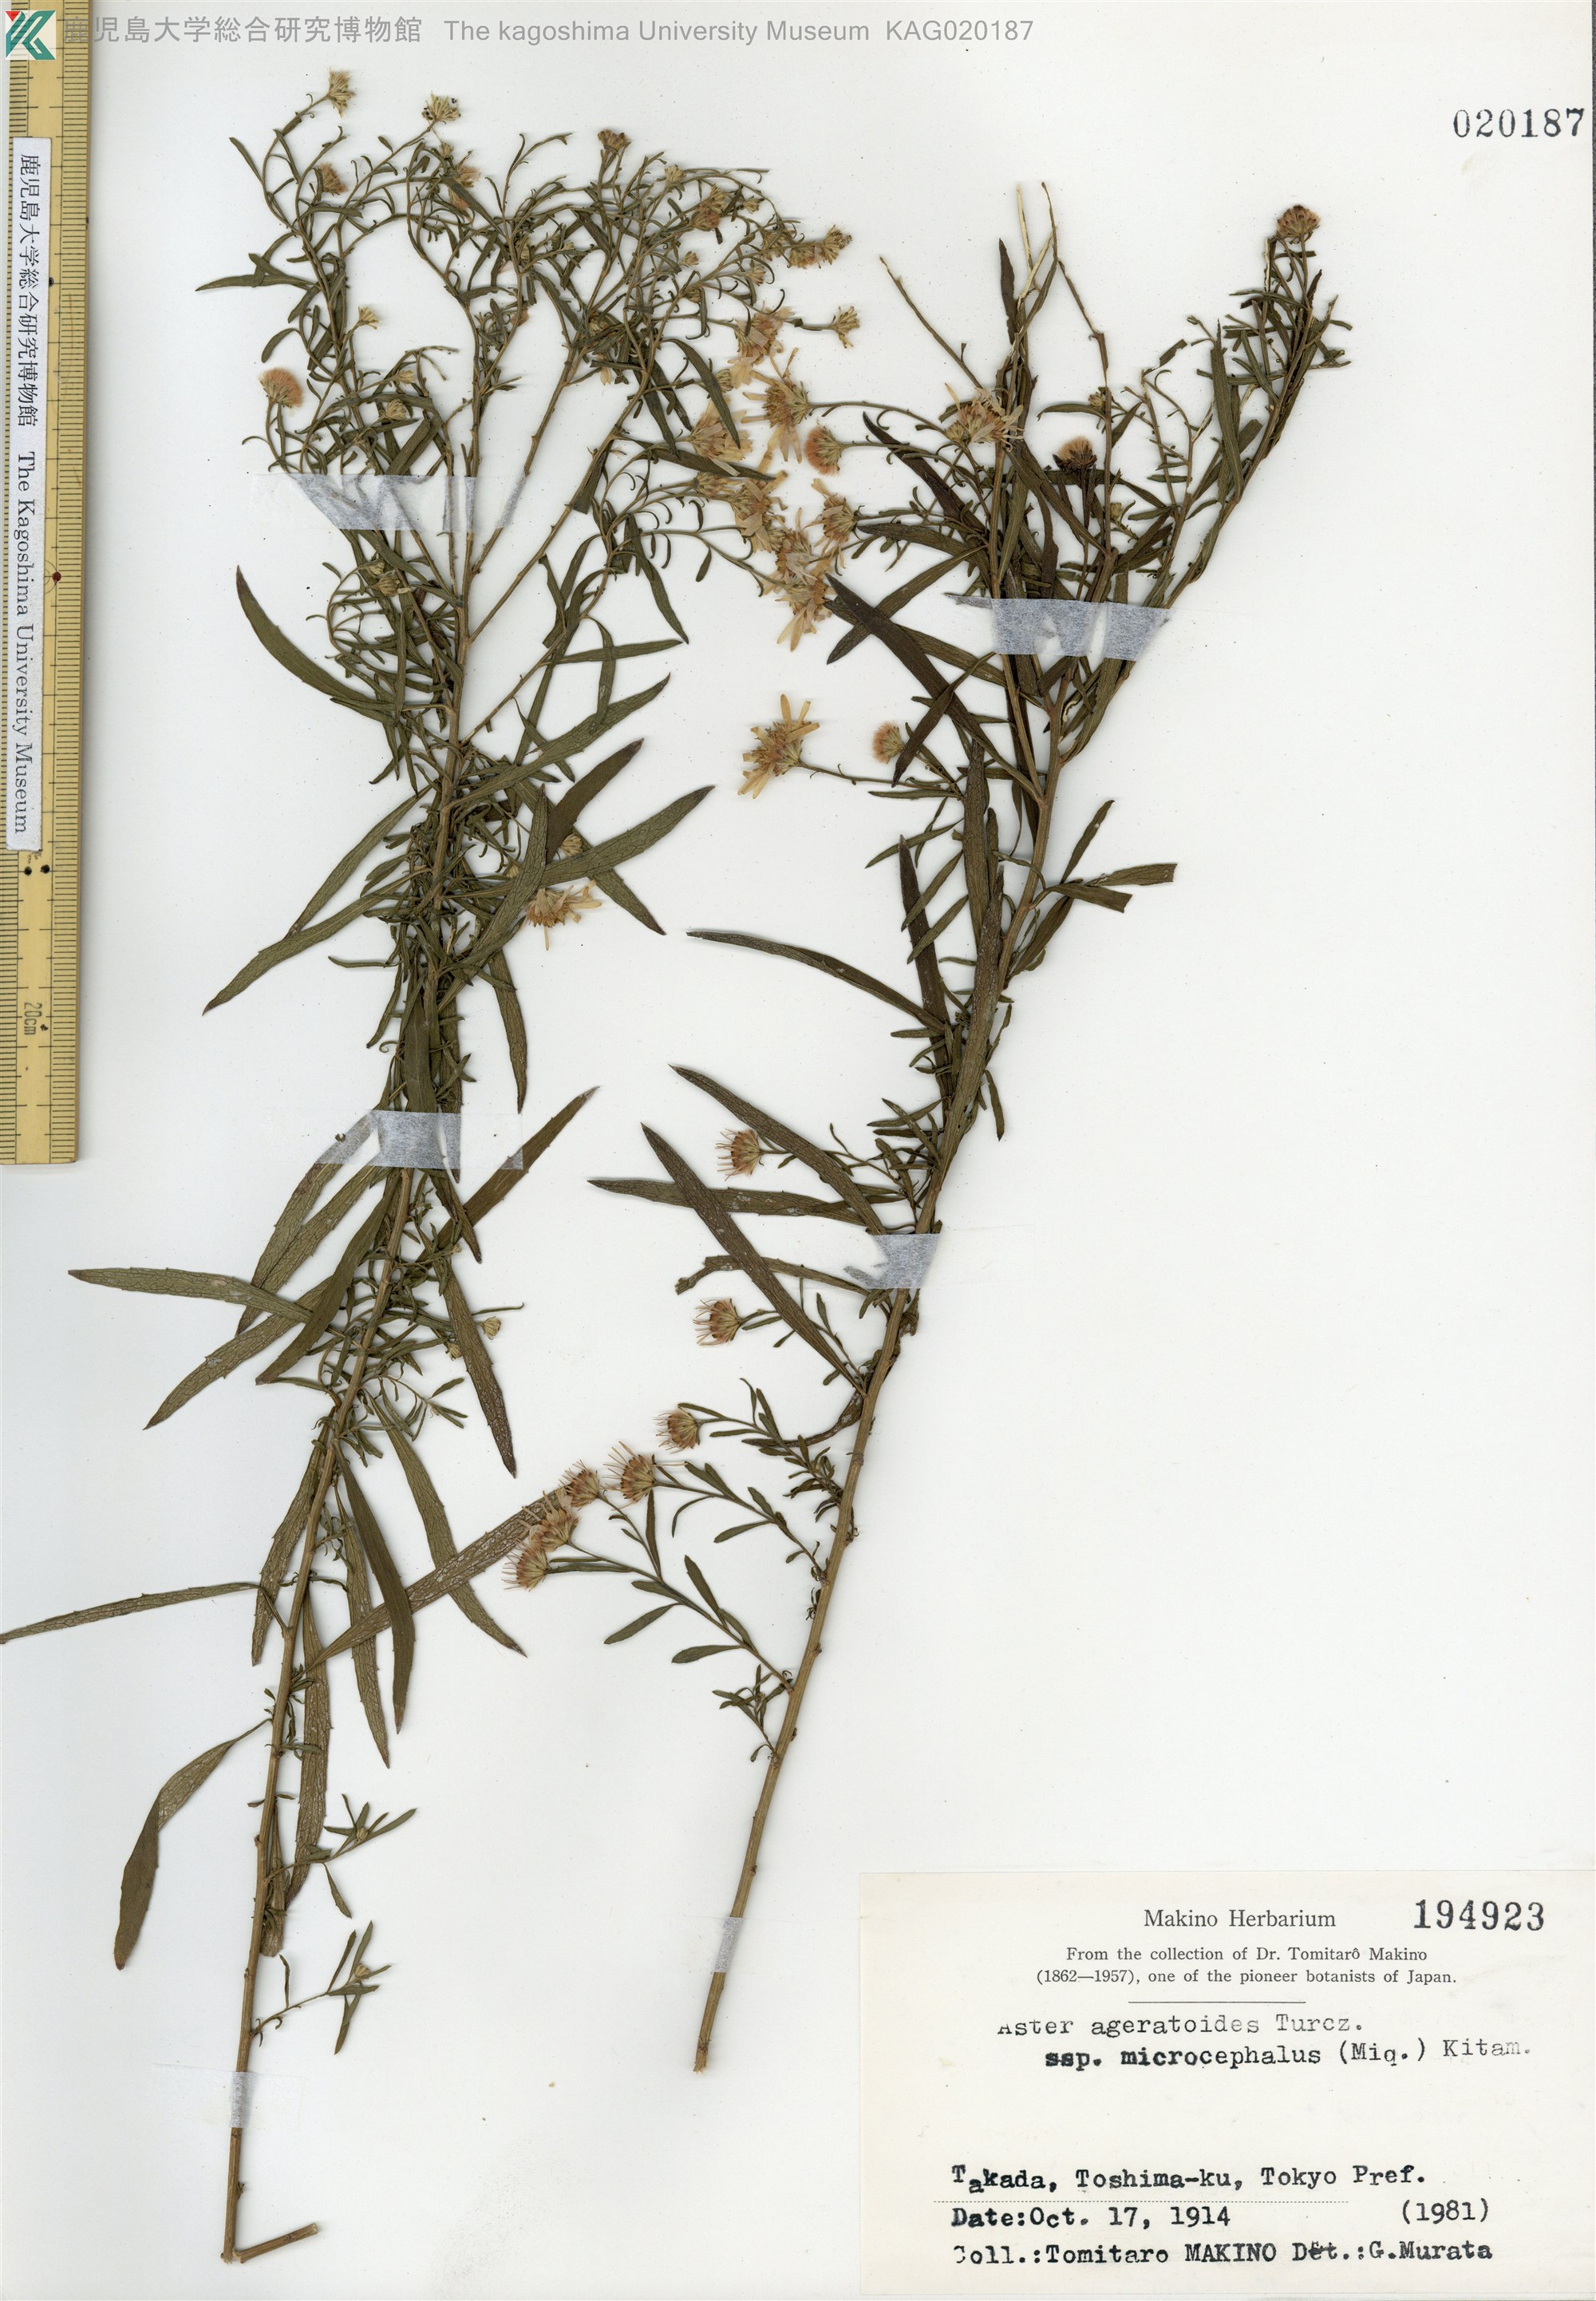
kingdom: Plantae
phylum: Tracheophyta
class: Magnoliopsida
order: Asterales
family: Asteraceae
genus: Aster
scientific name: Aster microcephalus
